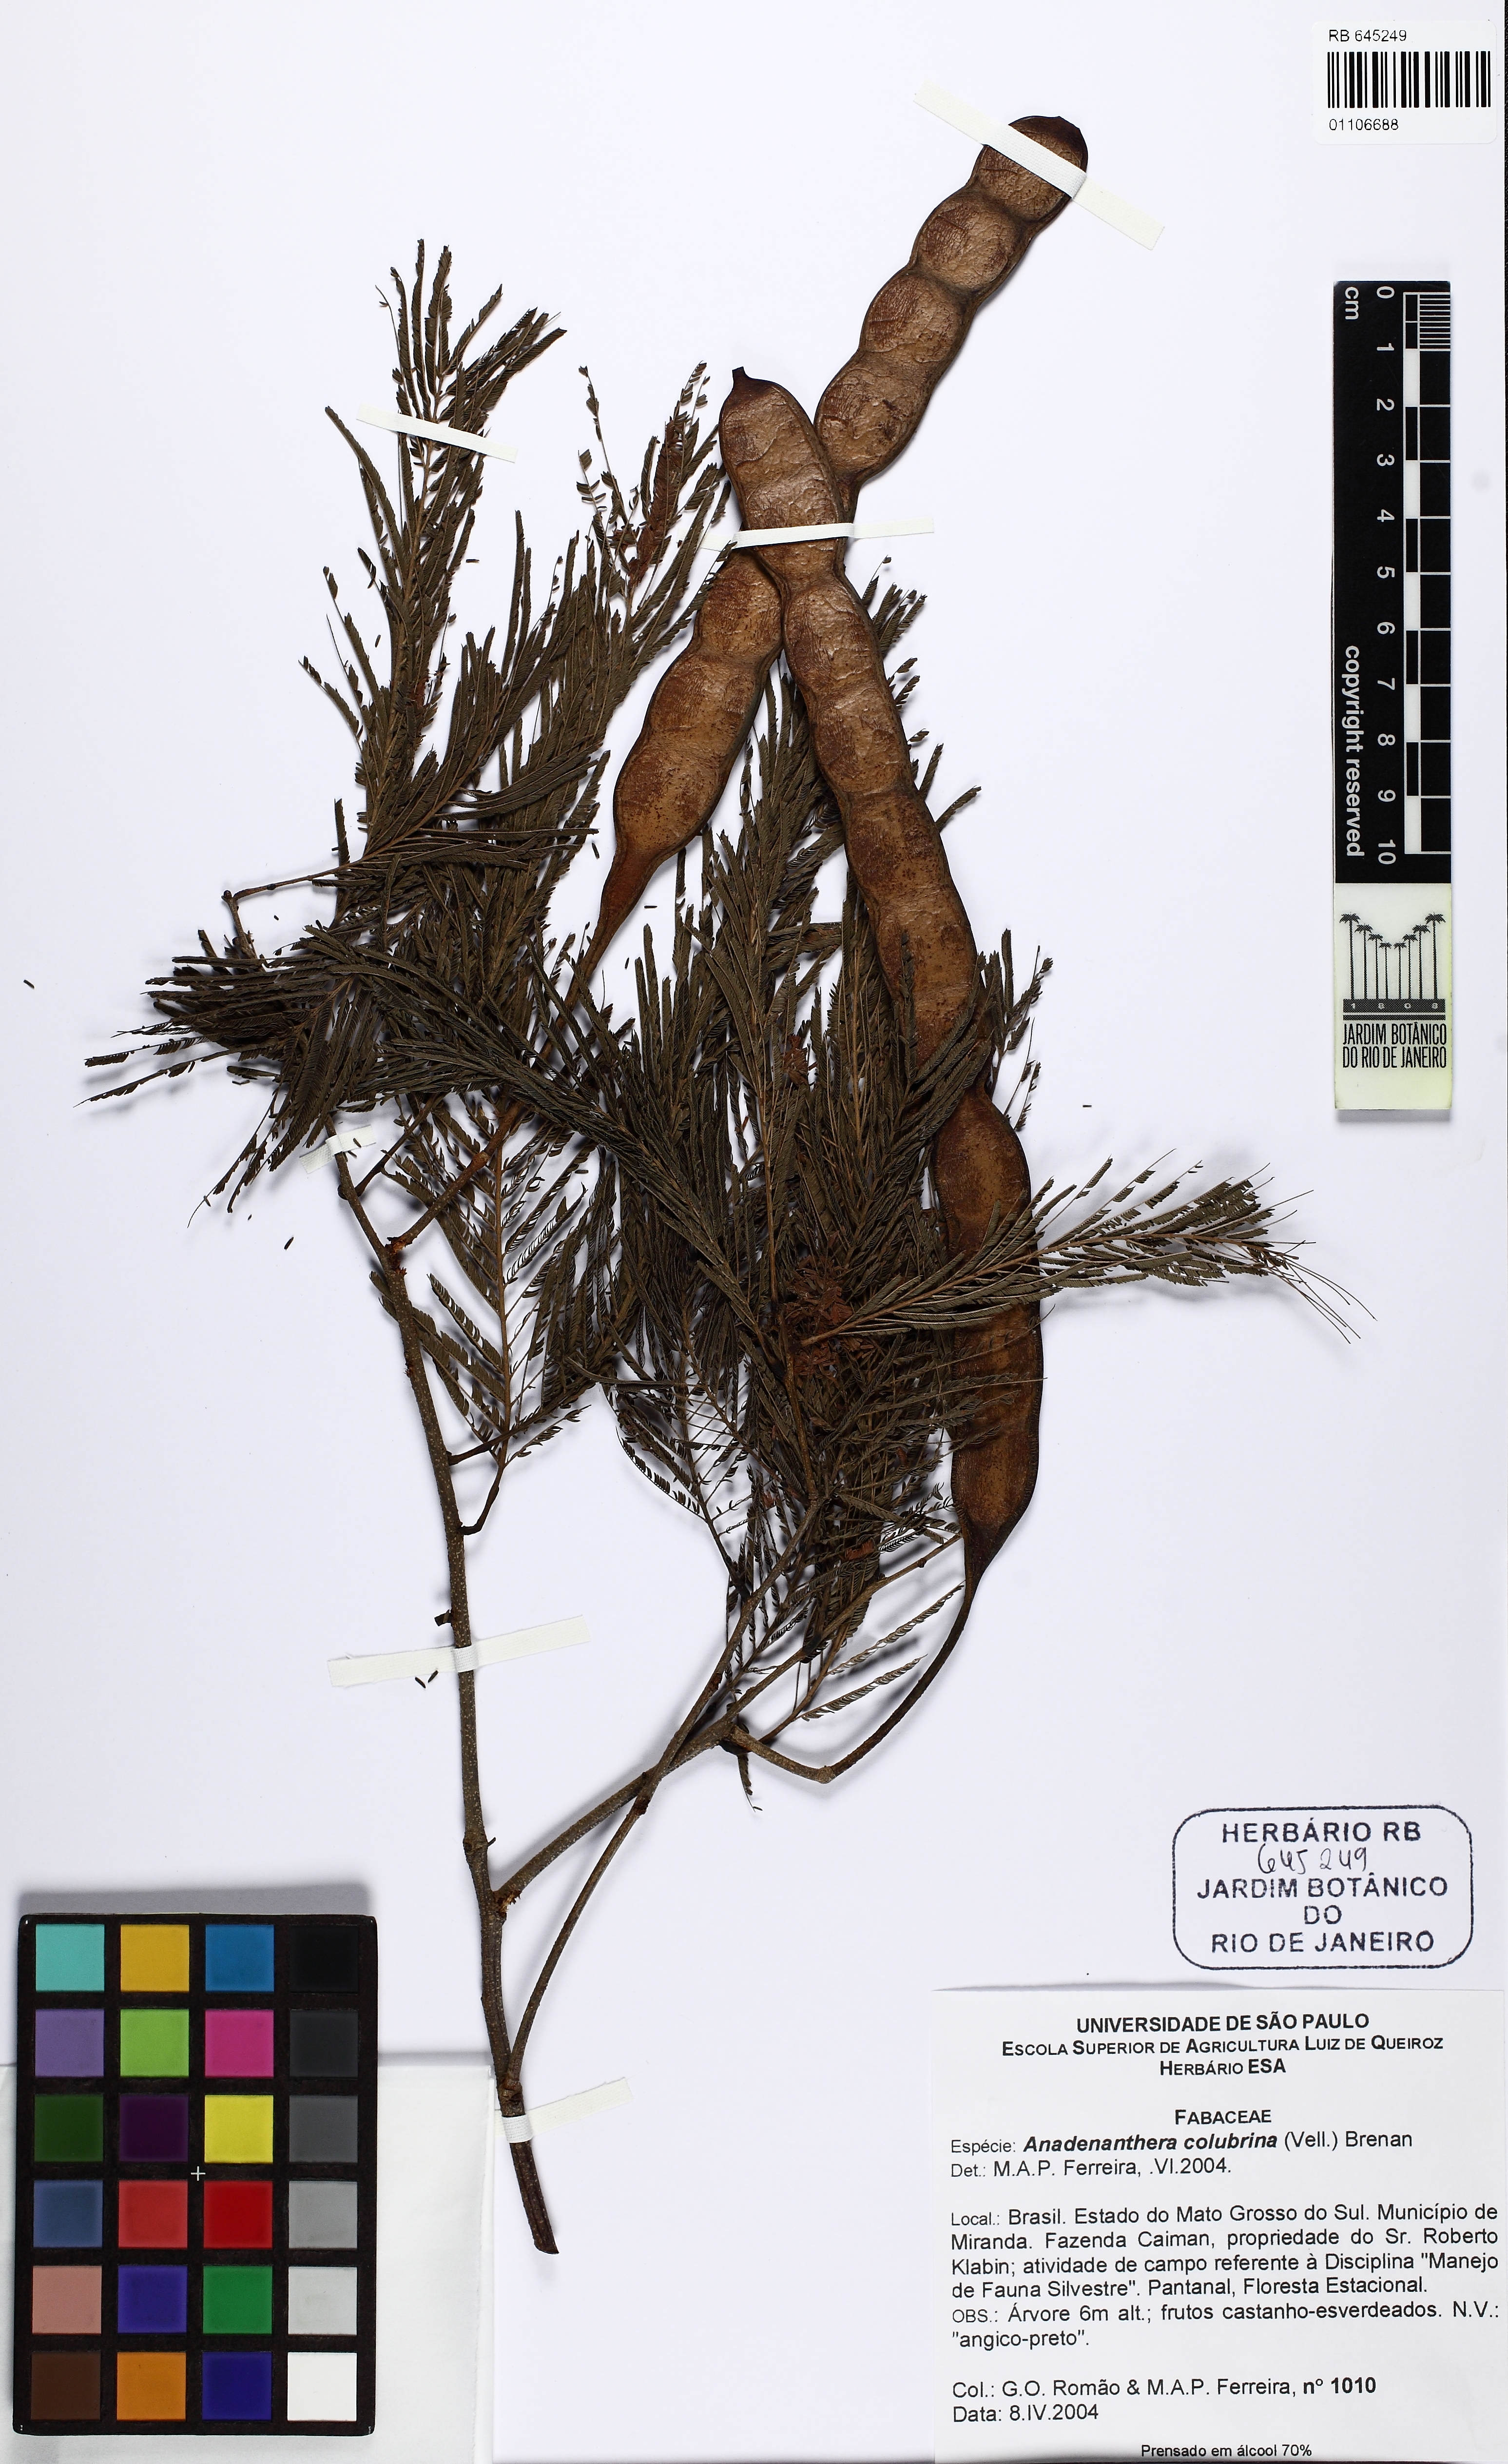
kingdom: Plantae
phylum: Tracheophyta
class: Magnoliopsida
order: Fabales
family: Fabaceae
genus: Anadenanthera
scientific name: Anadenanthera colubrina
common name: Curupay
